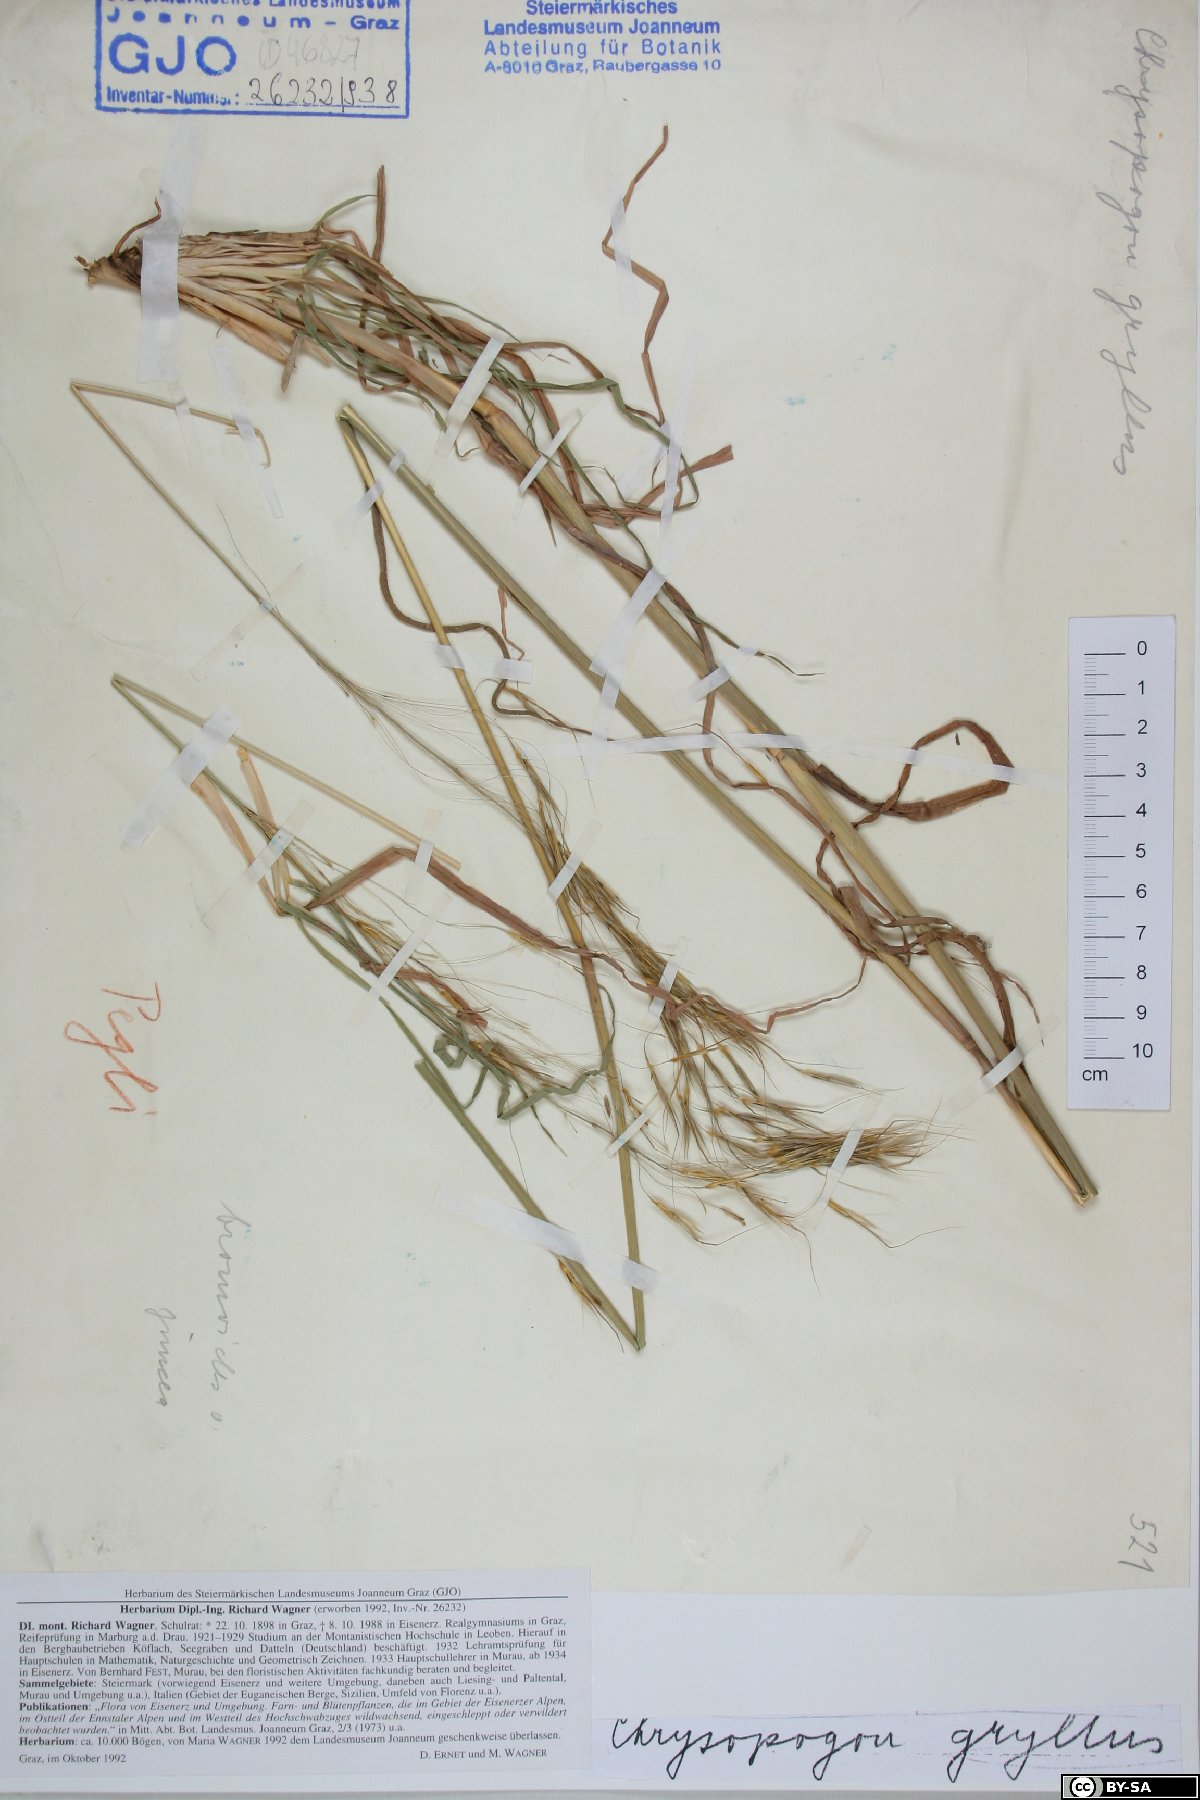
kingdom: Plantae
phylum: Tracheophyta
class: Liliopsida
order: Poales
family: Poaceae
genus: Chrysopogon
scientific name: Chrysopogon gryllus
